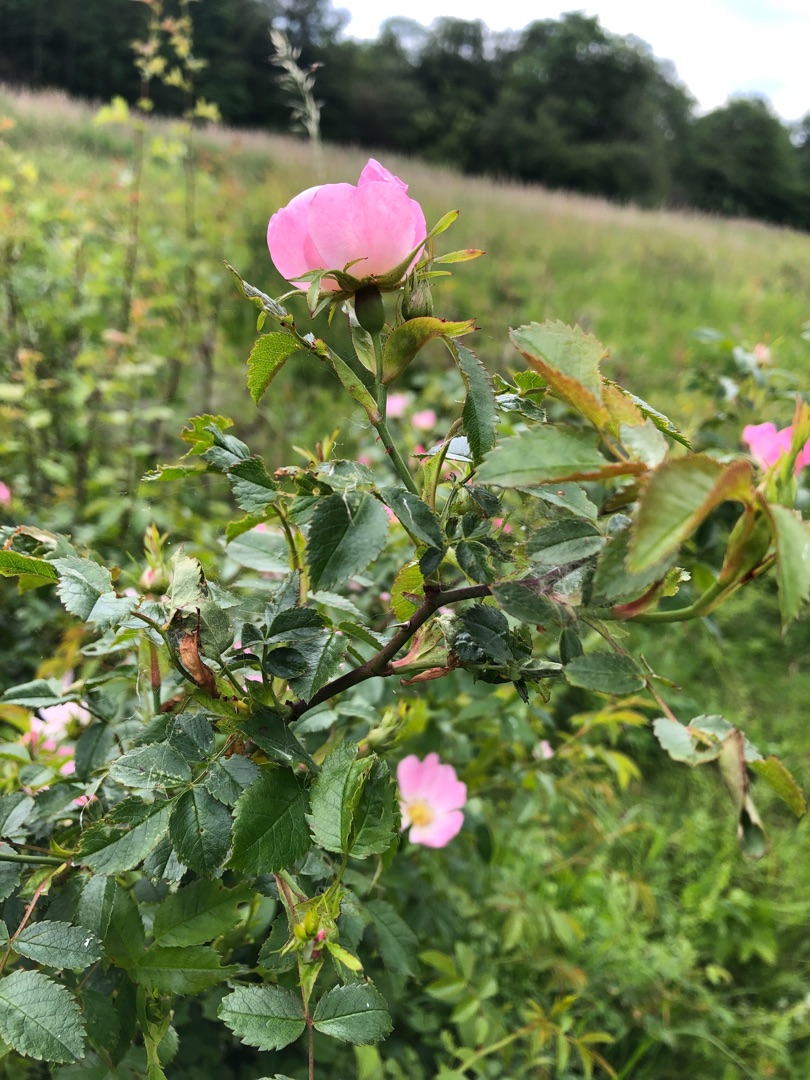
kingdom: Plantae
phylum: Tracheophyta
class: Magnoliopsida
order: Rosales
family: Rosaceae
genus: Rosa
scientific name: Rosa canina
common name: Glat hunde-rose
